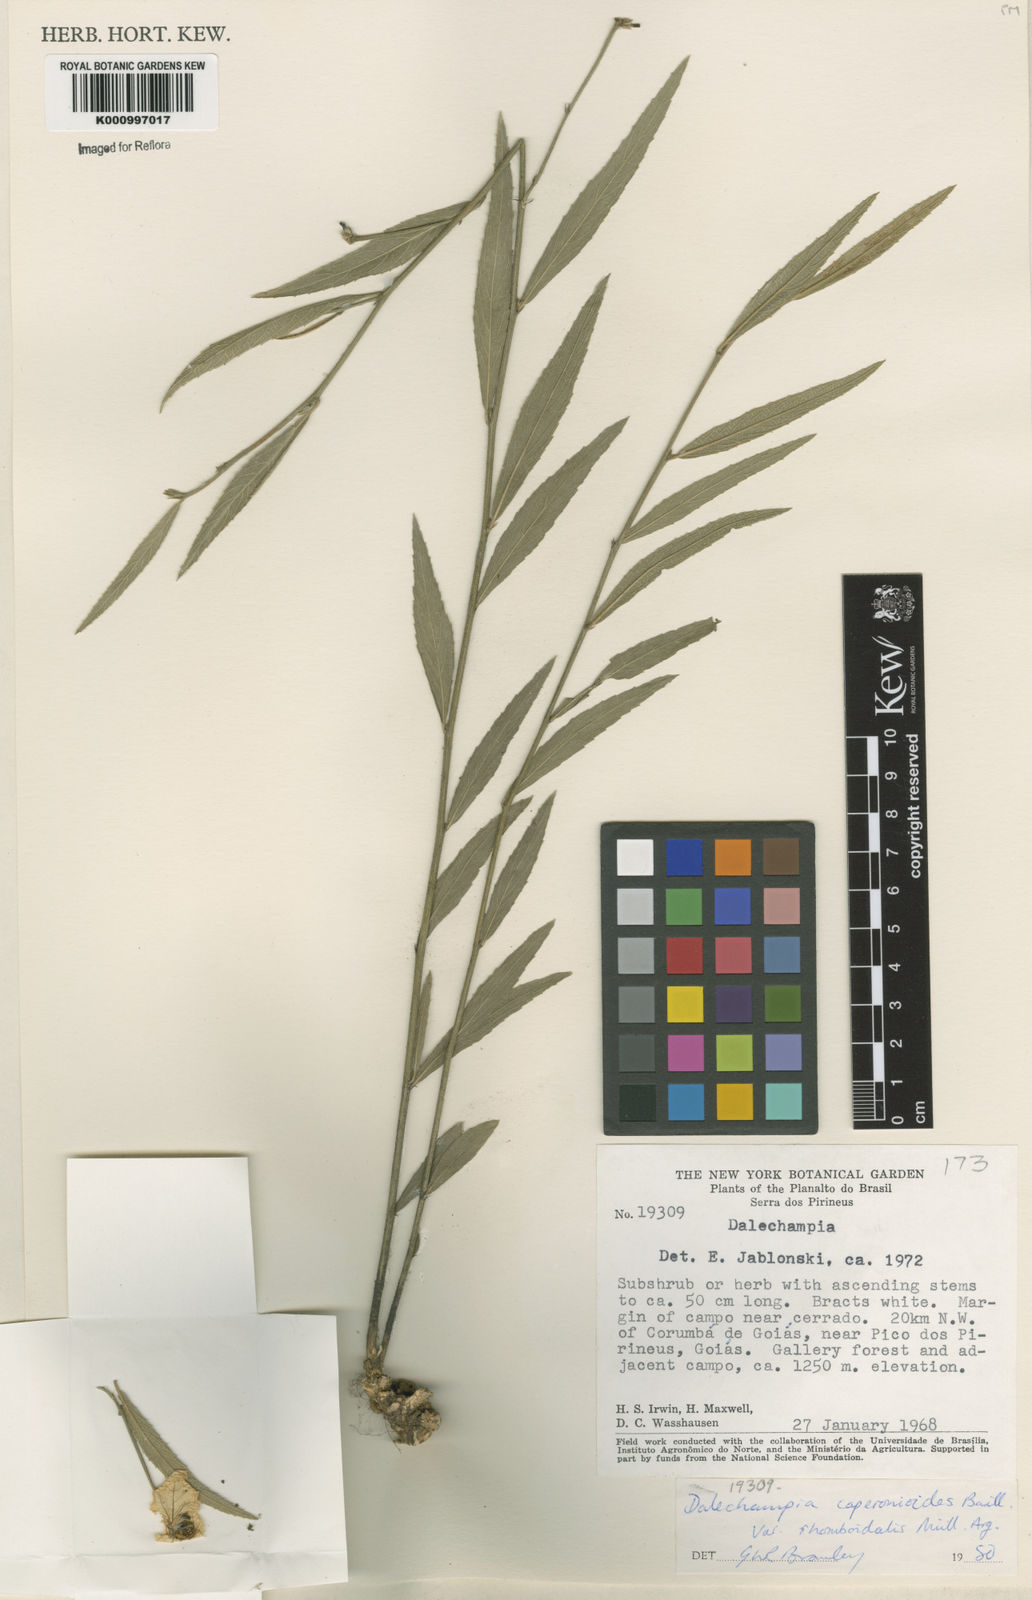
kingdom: Plantae
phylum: Tracheophyta
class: Magnoliopsida
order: Malpighiales
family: Euphorbiaceae
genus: Dalechampia
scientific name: Dalechampia caperonioides
